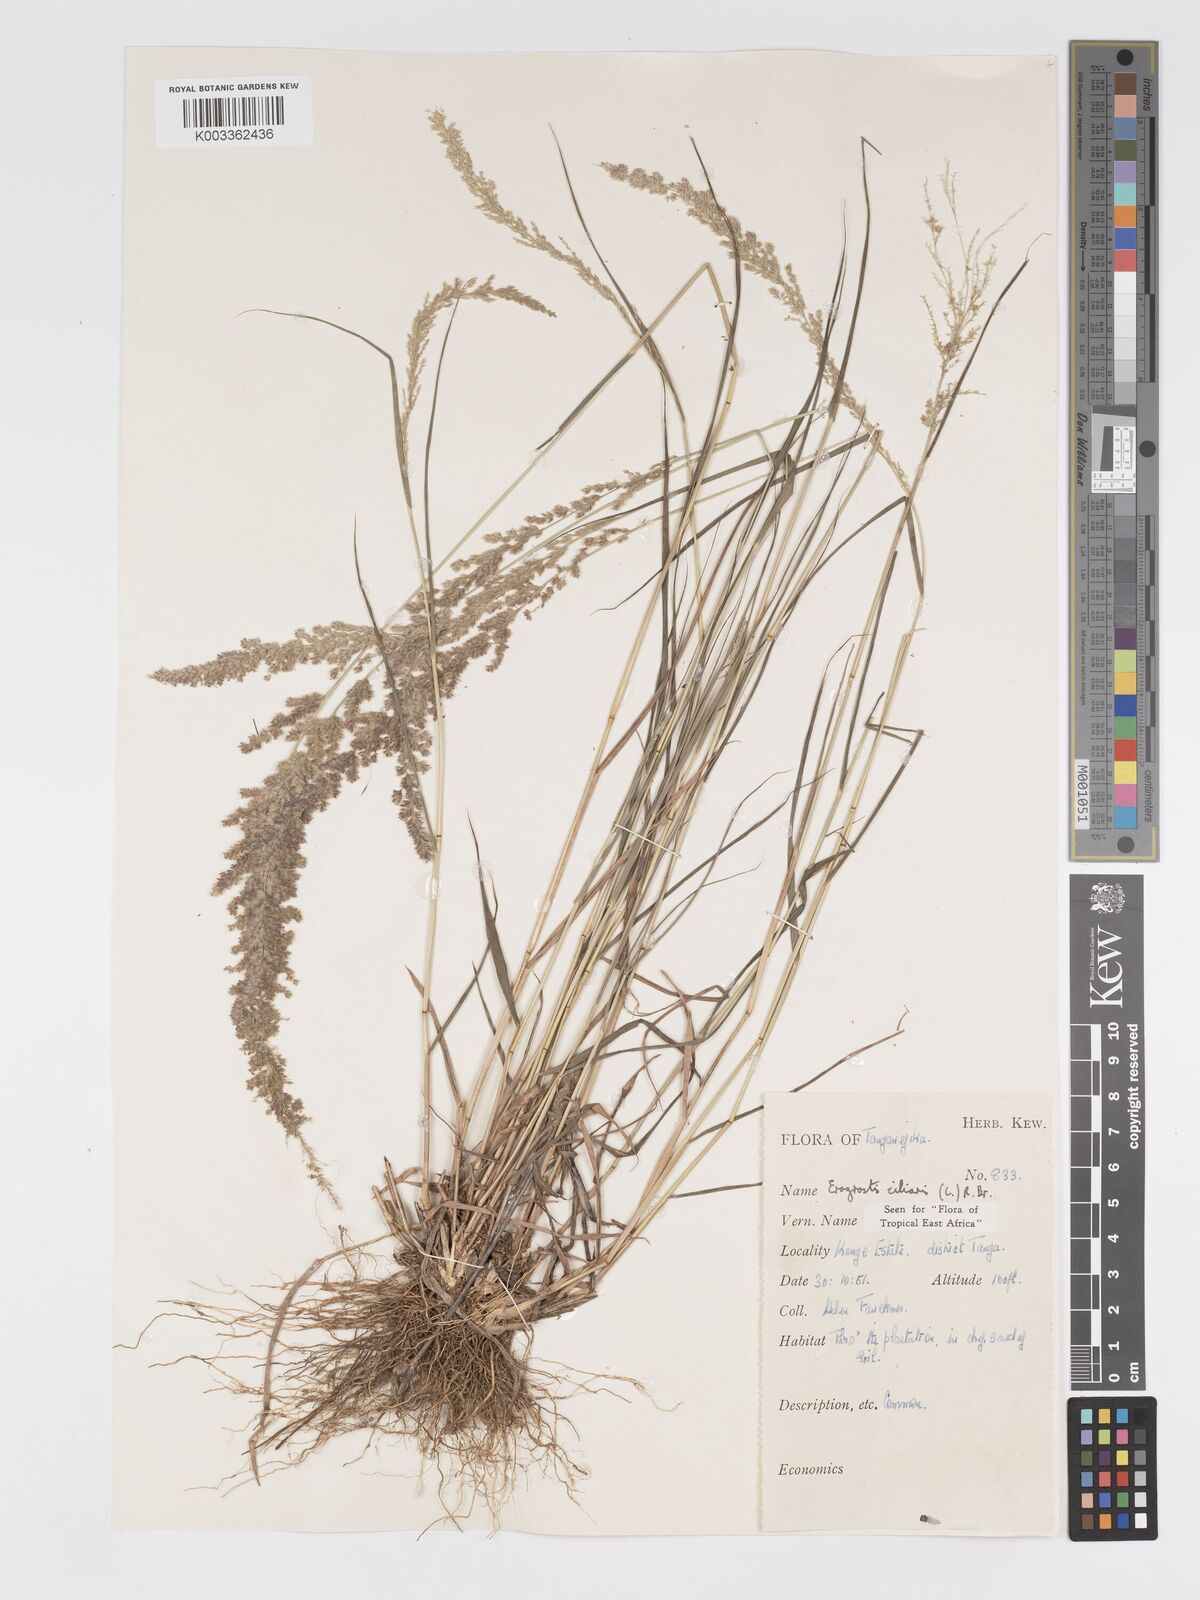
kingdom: Plantae
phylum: Tracheophyta
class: Liliopsida
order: Poales
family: Poaceae
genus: Eragrostis
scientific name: Eragrostis ciliaris
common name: Gophertail lovegrass
